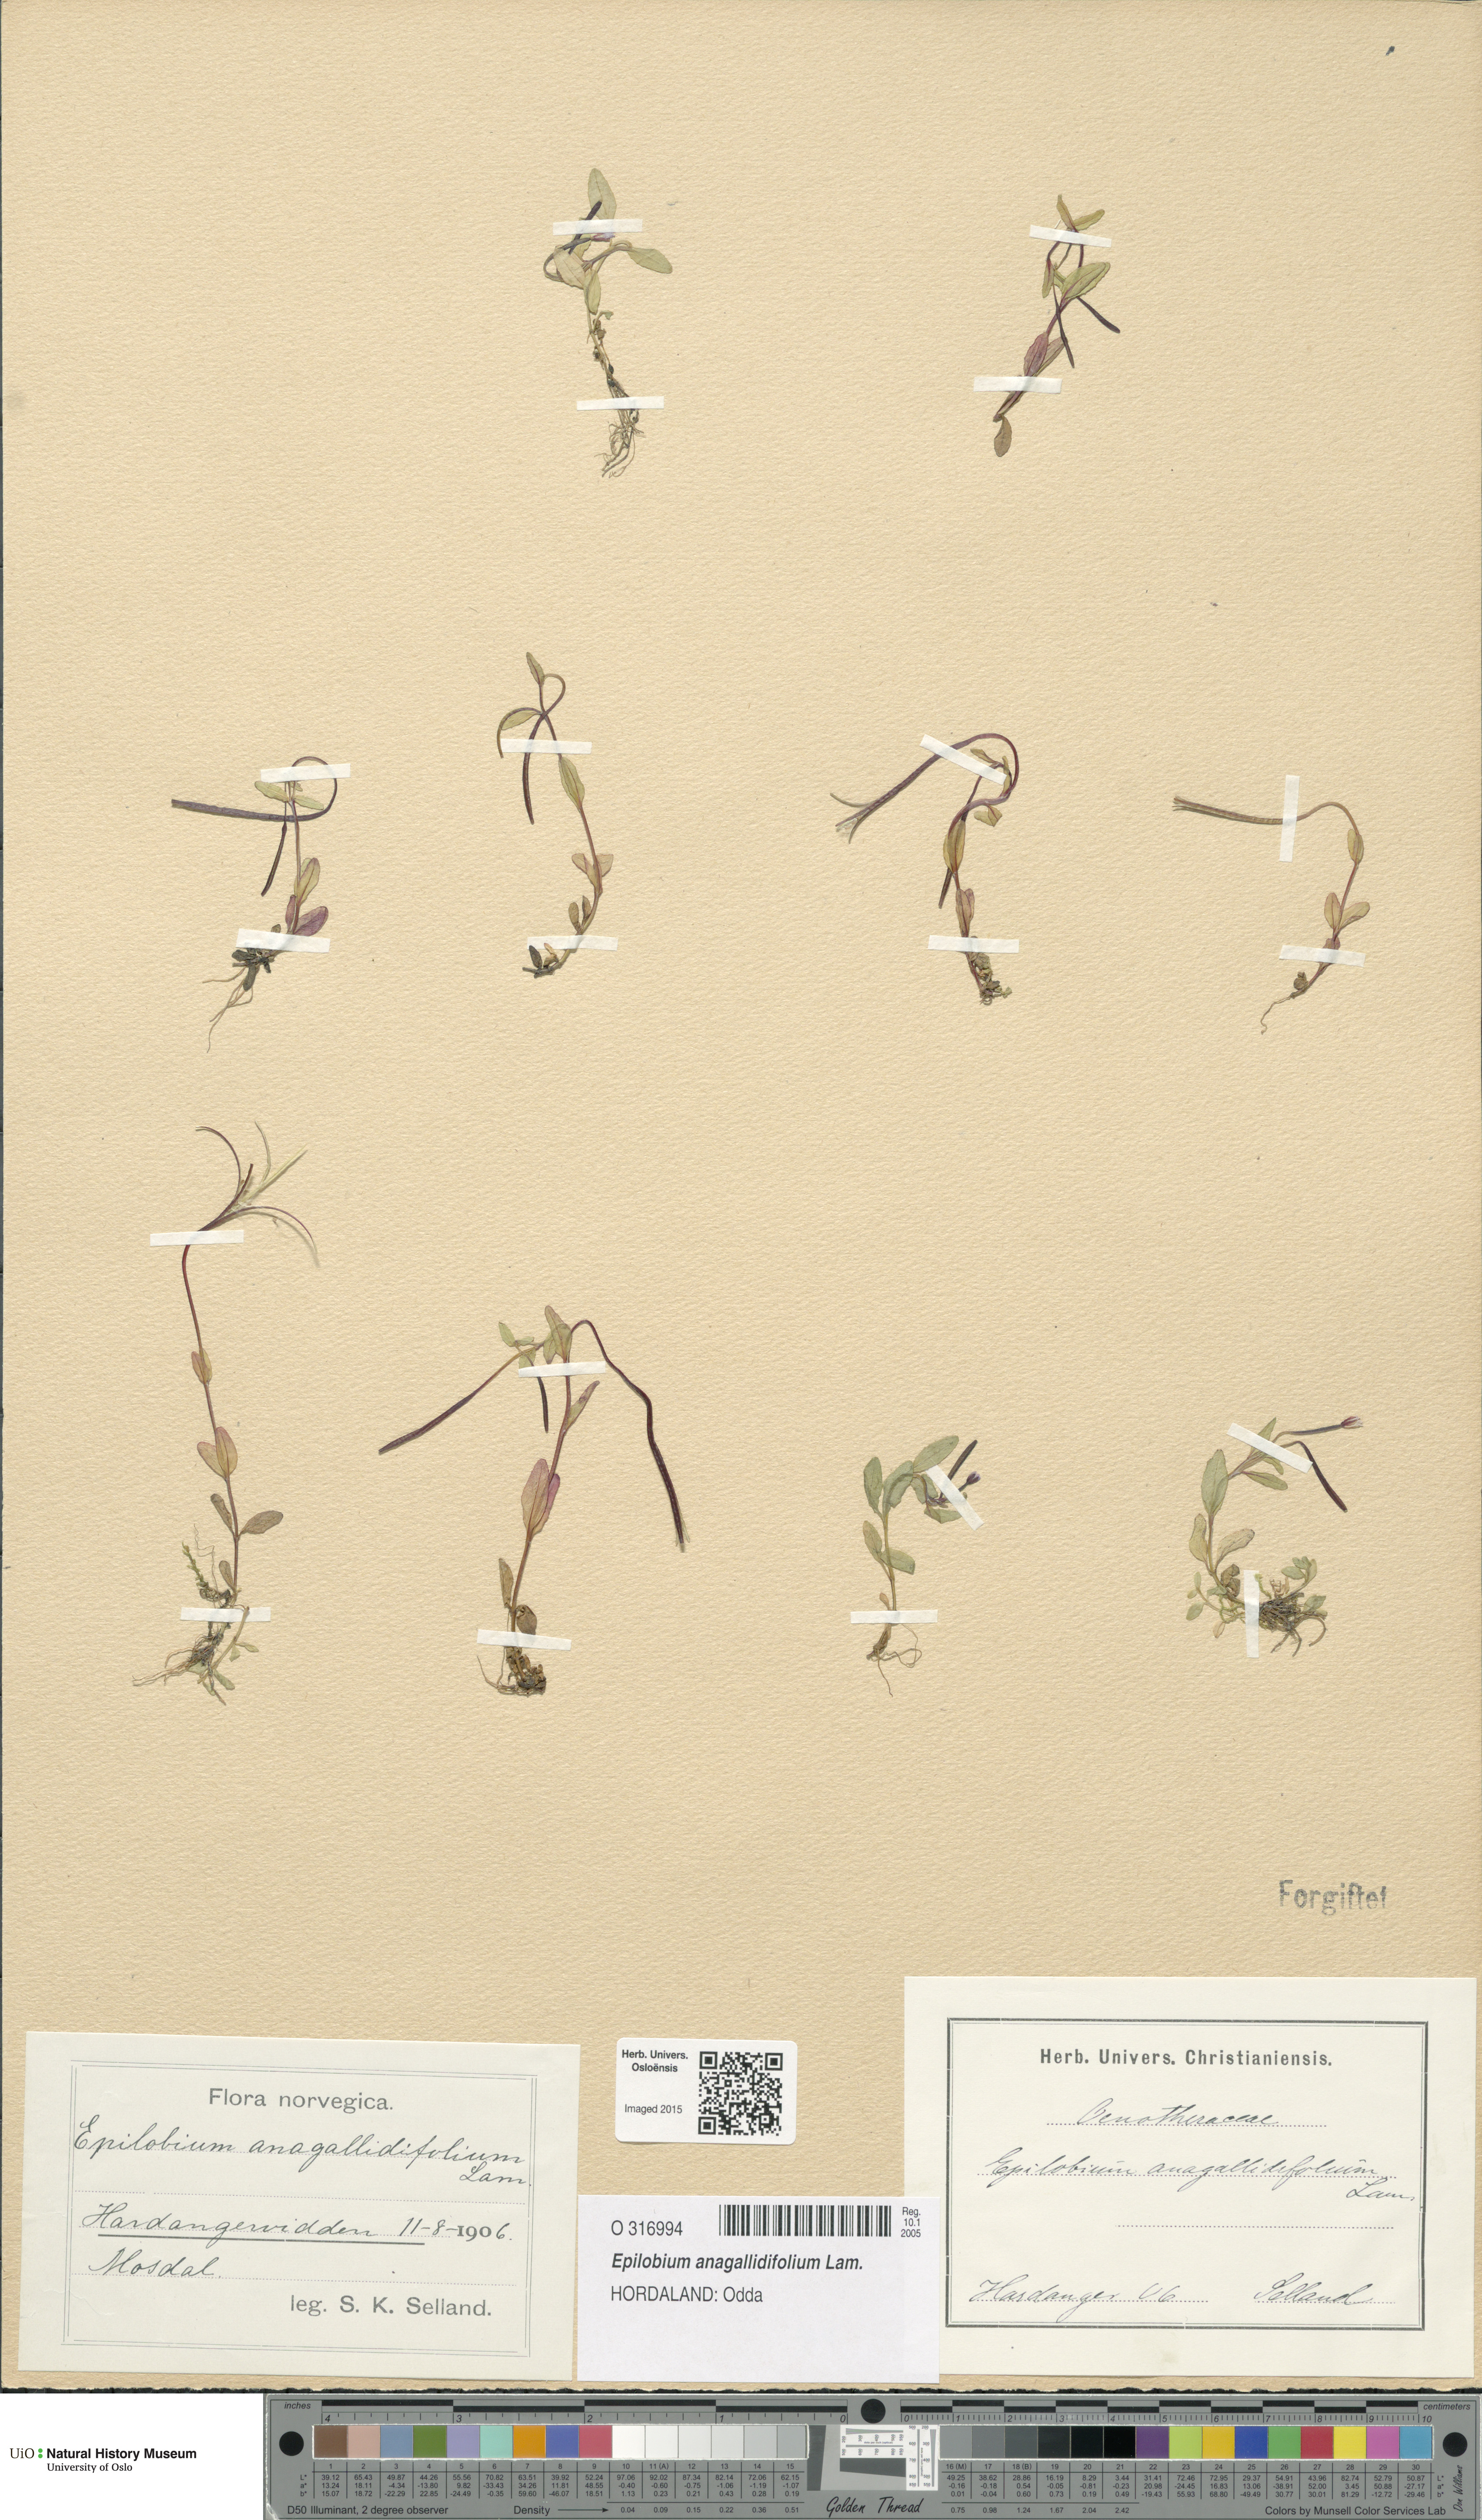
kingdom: Plantae
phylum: Tracheophyta
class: Magnoliopsida
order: Myrtales
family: Onagraceae
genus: Epilobium
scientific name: Epilobium anagallidifolium
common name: Alpine willowherb
